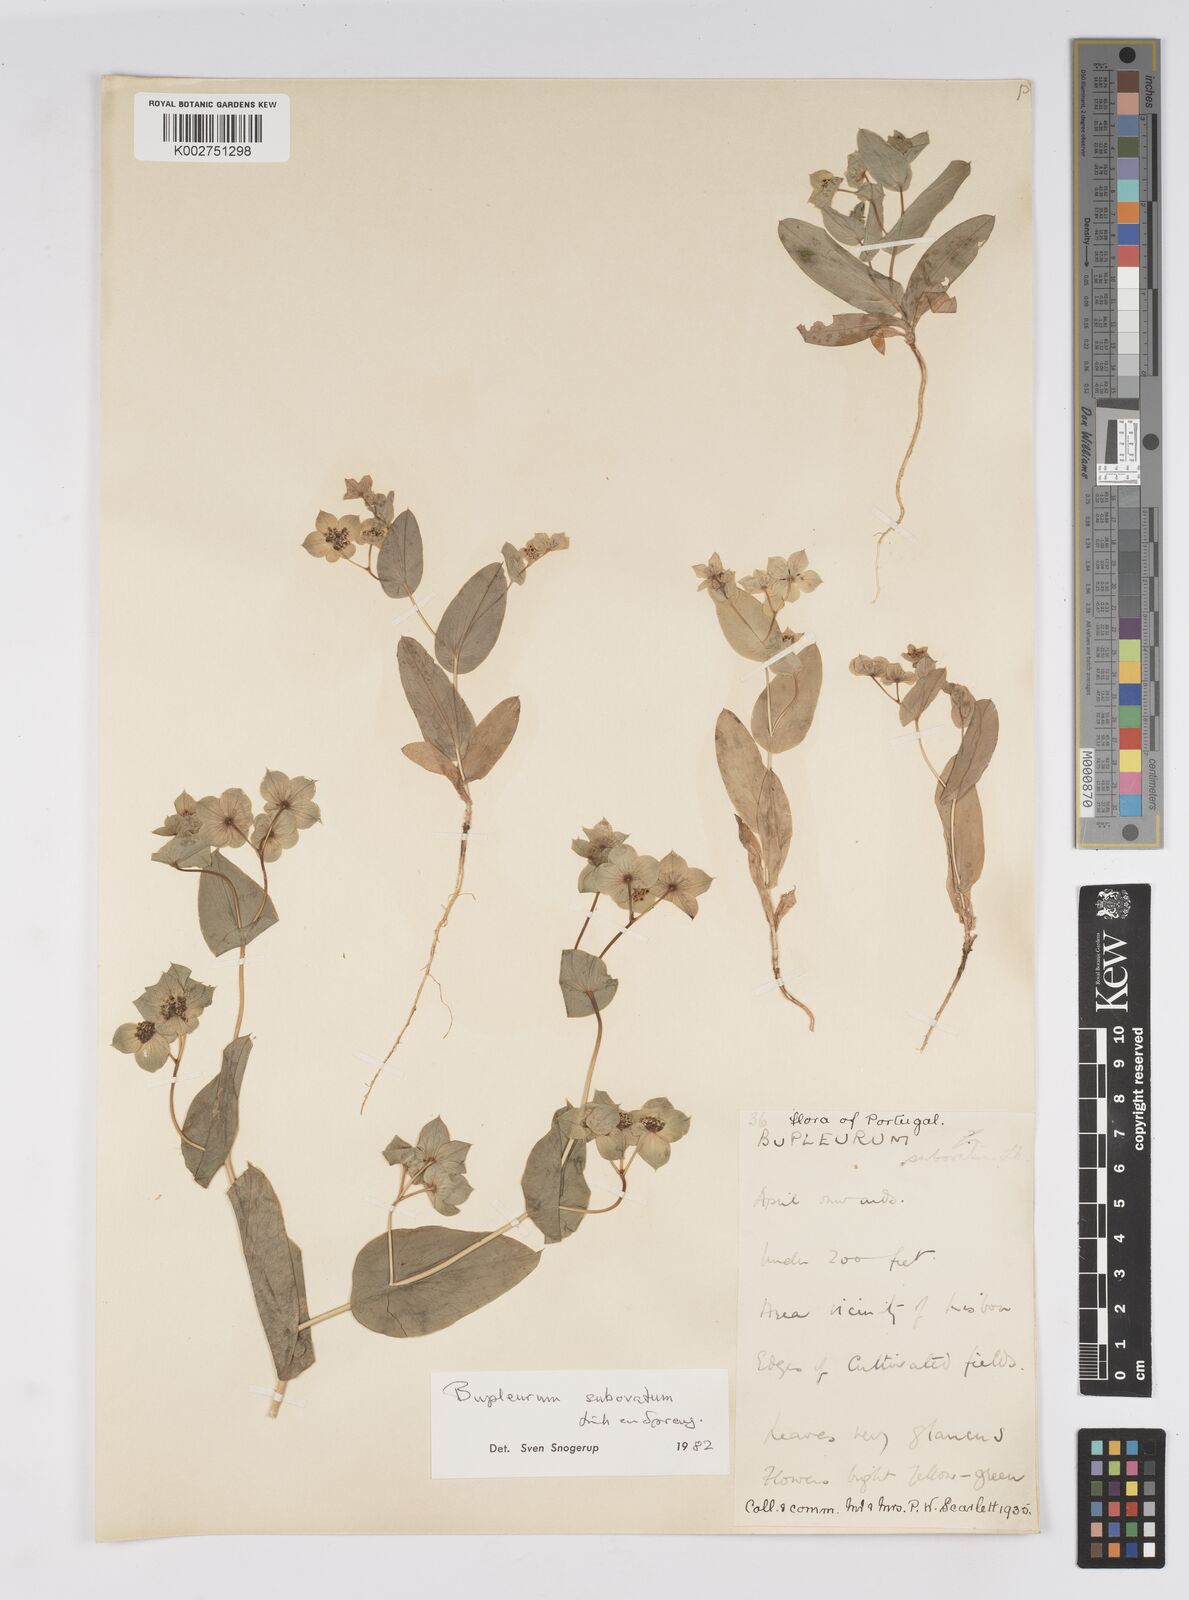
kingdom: Plantae
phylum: Tracheophyta
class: Magnoliopsida
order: Apiales
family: Apiaceae
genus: Bupleurum
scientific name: Bupleurum subovatum
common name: False thorow-wax
